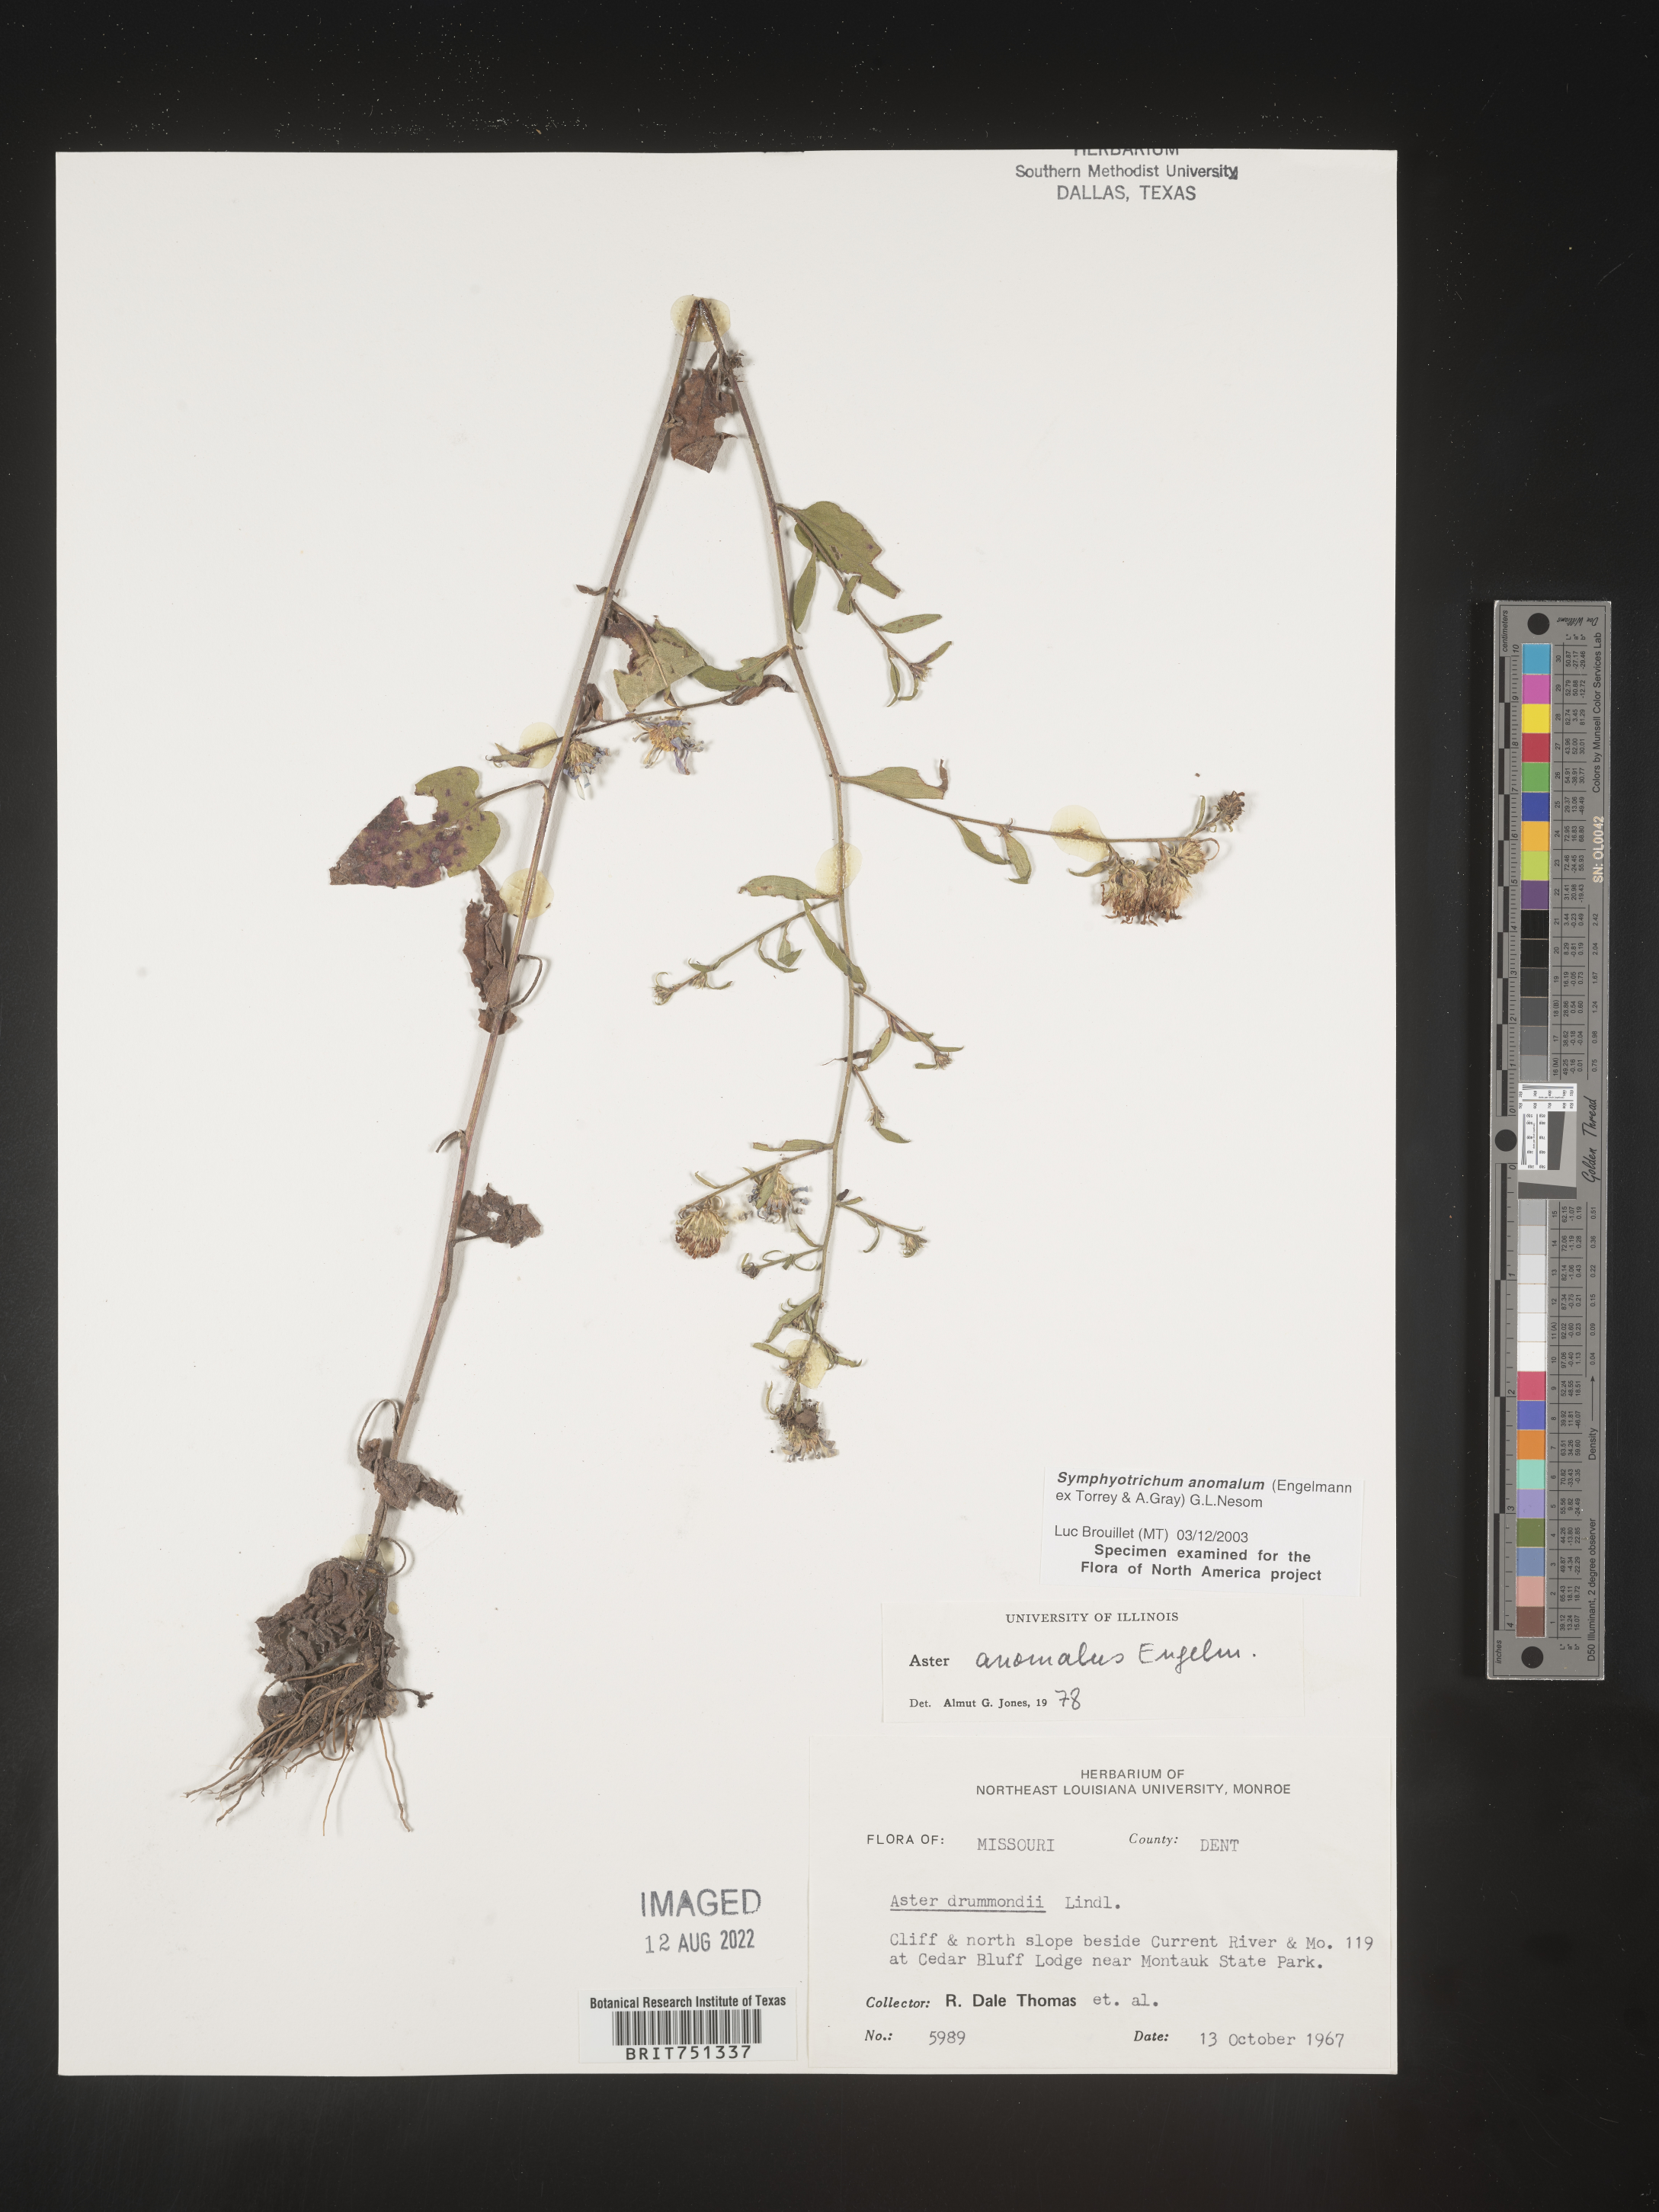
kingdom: Plantae
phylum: Tracheophyta
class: Magnoliopsida
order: Asterales
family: Asteraceae
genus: Symphyotrichum
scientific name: Symphyotrichum anomalum
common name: Many-ray aster
